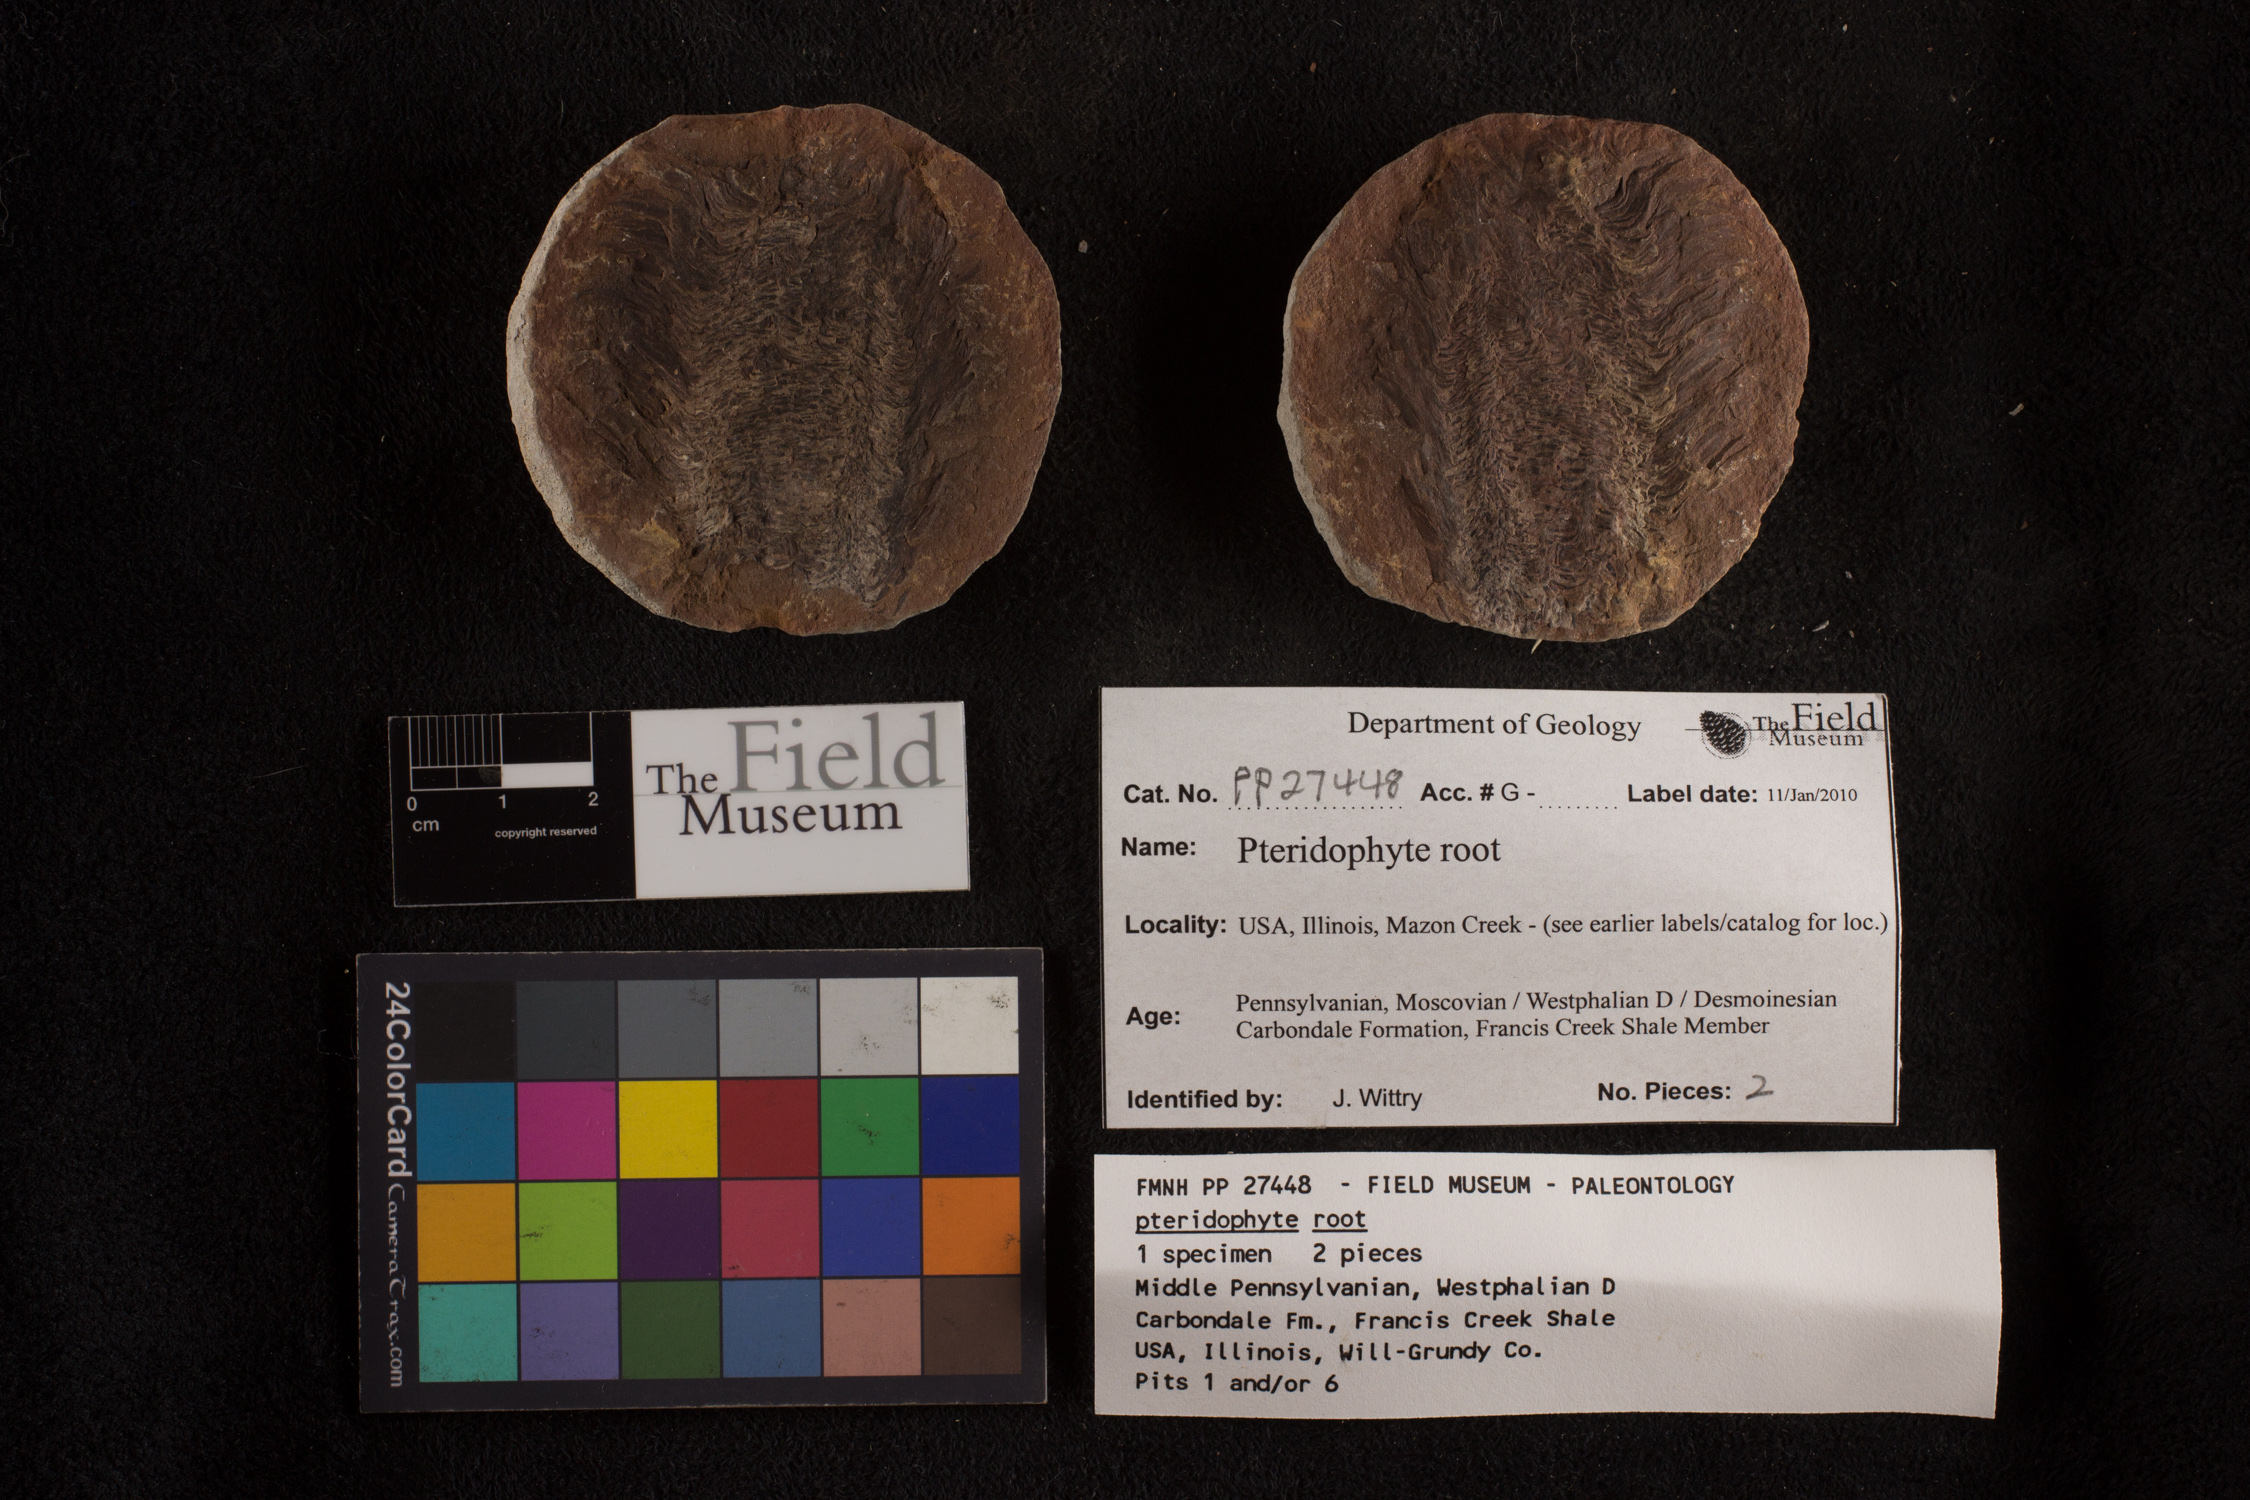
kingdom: Plantae
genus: Rhacophyllum
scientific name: Rhacophyllum
